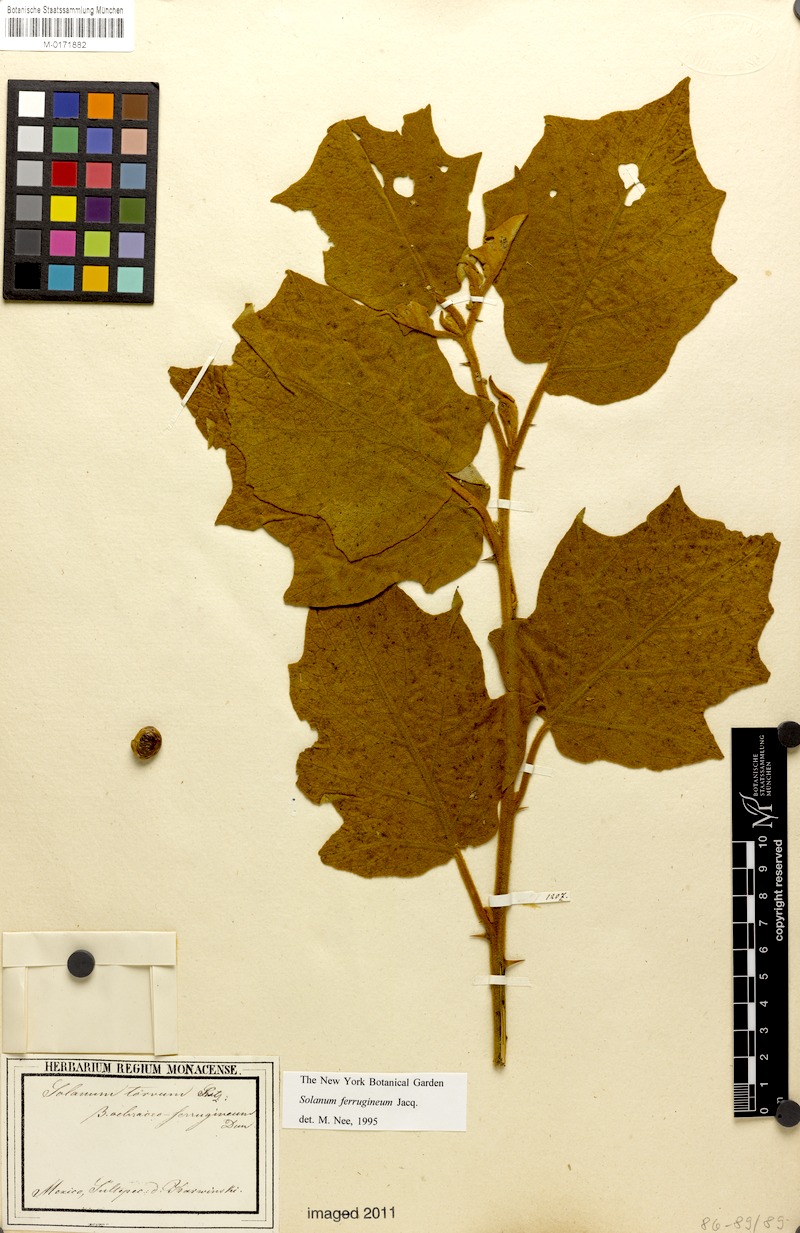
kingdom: Plantae
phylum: Tracheophyta
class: Magnoliopsida
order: Solanales
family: Solanaceae
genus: Solanum
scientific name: Solanum ferrugineum
